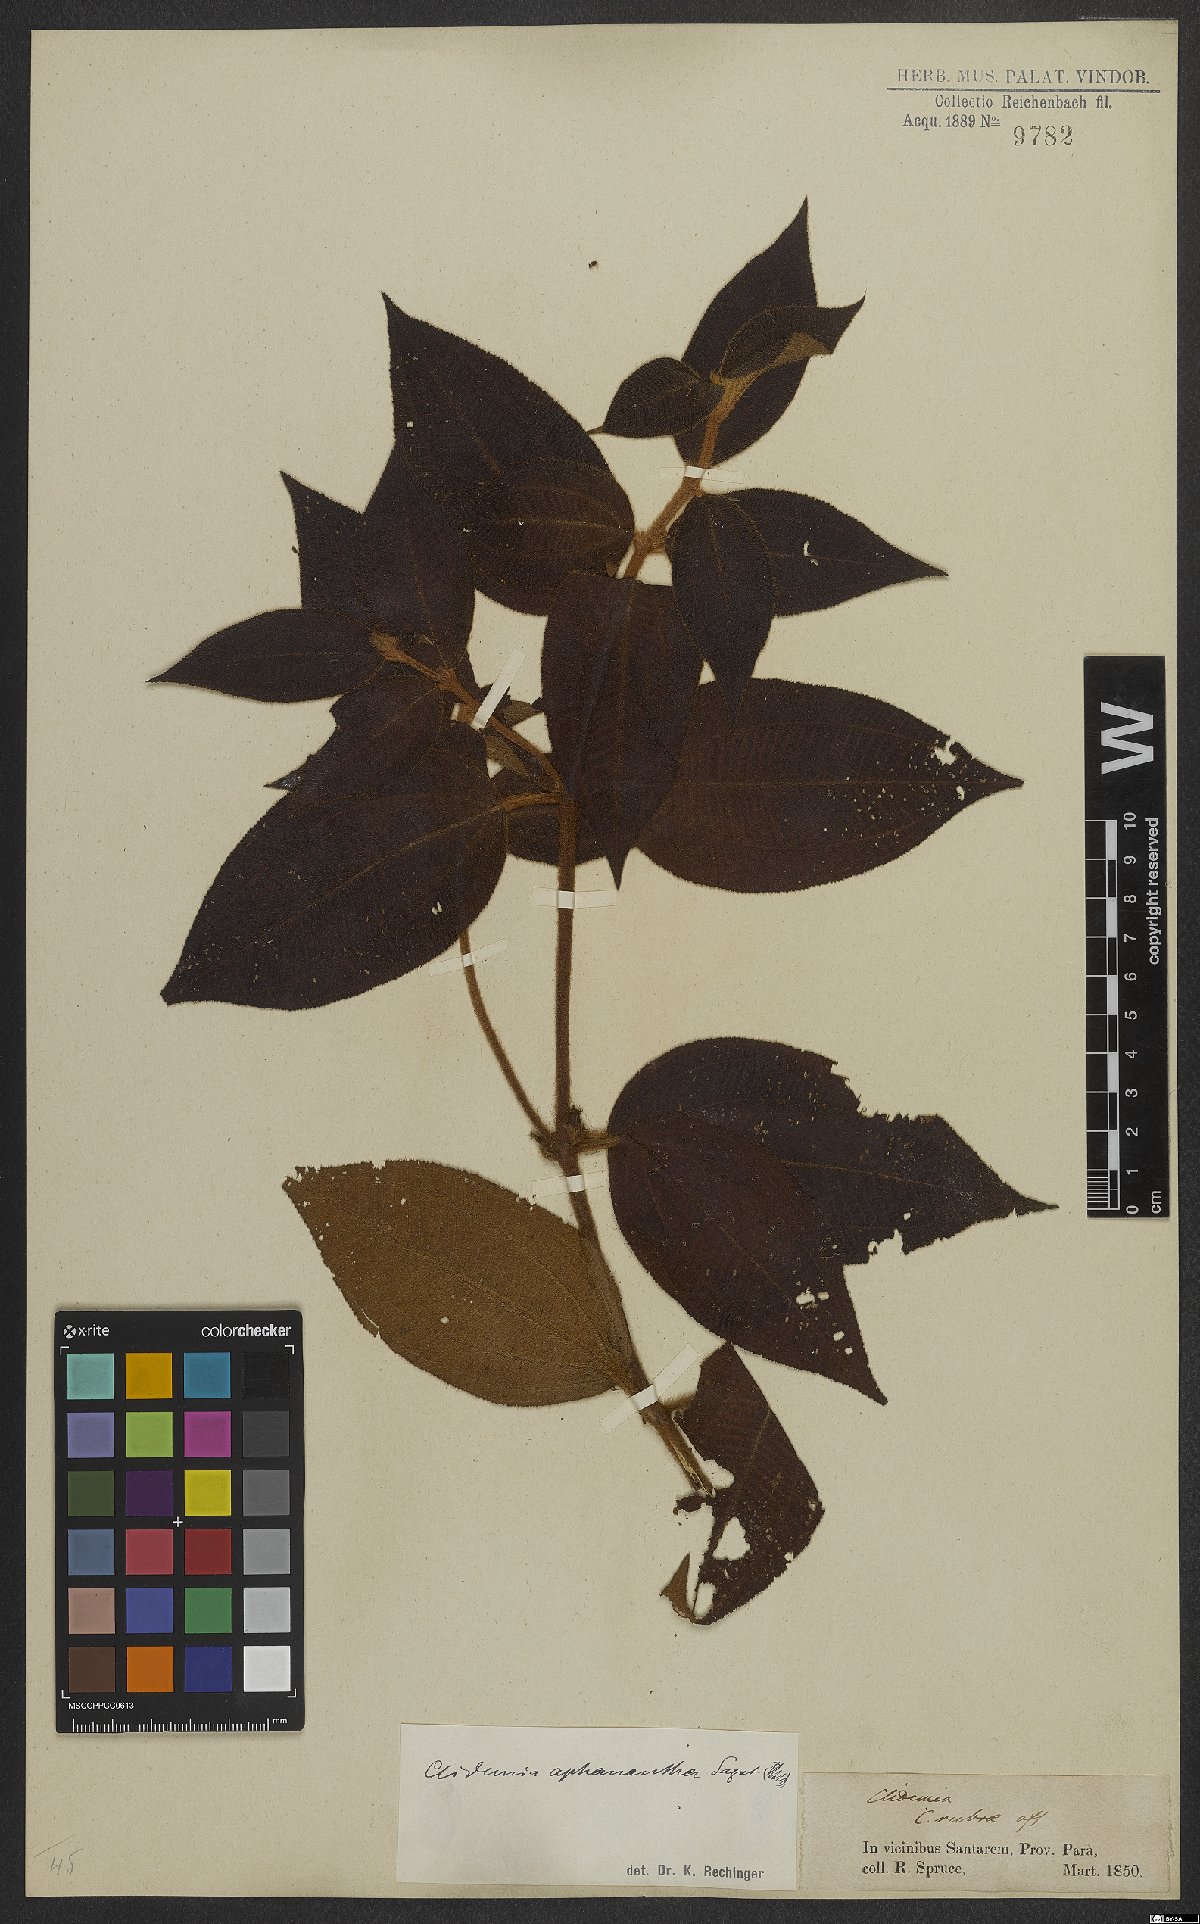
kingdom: Plantae
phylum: Tracheophyta
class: Magnoliopsida
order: Myrtales
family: Melastomataceae
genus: Miconia
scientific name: Miconia aphanantha
